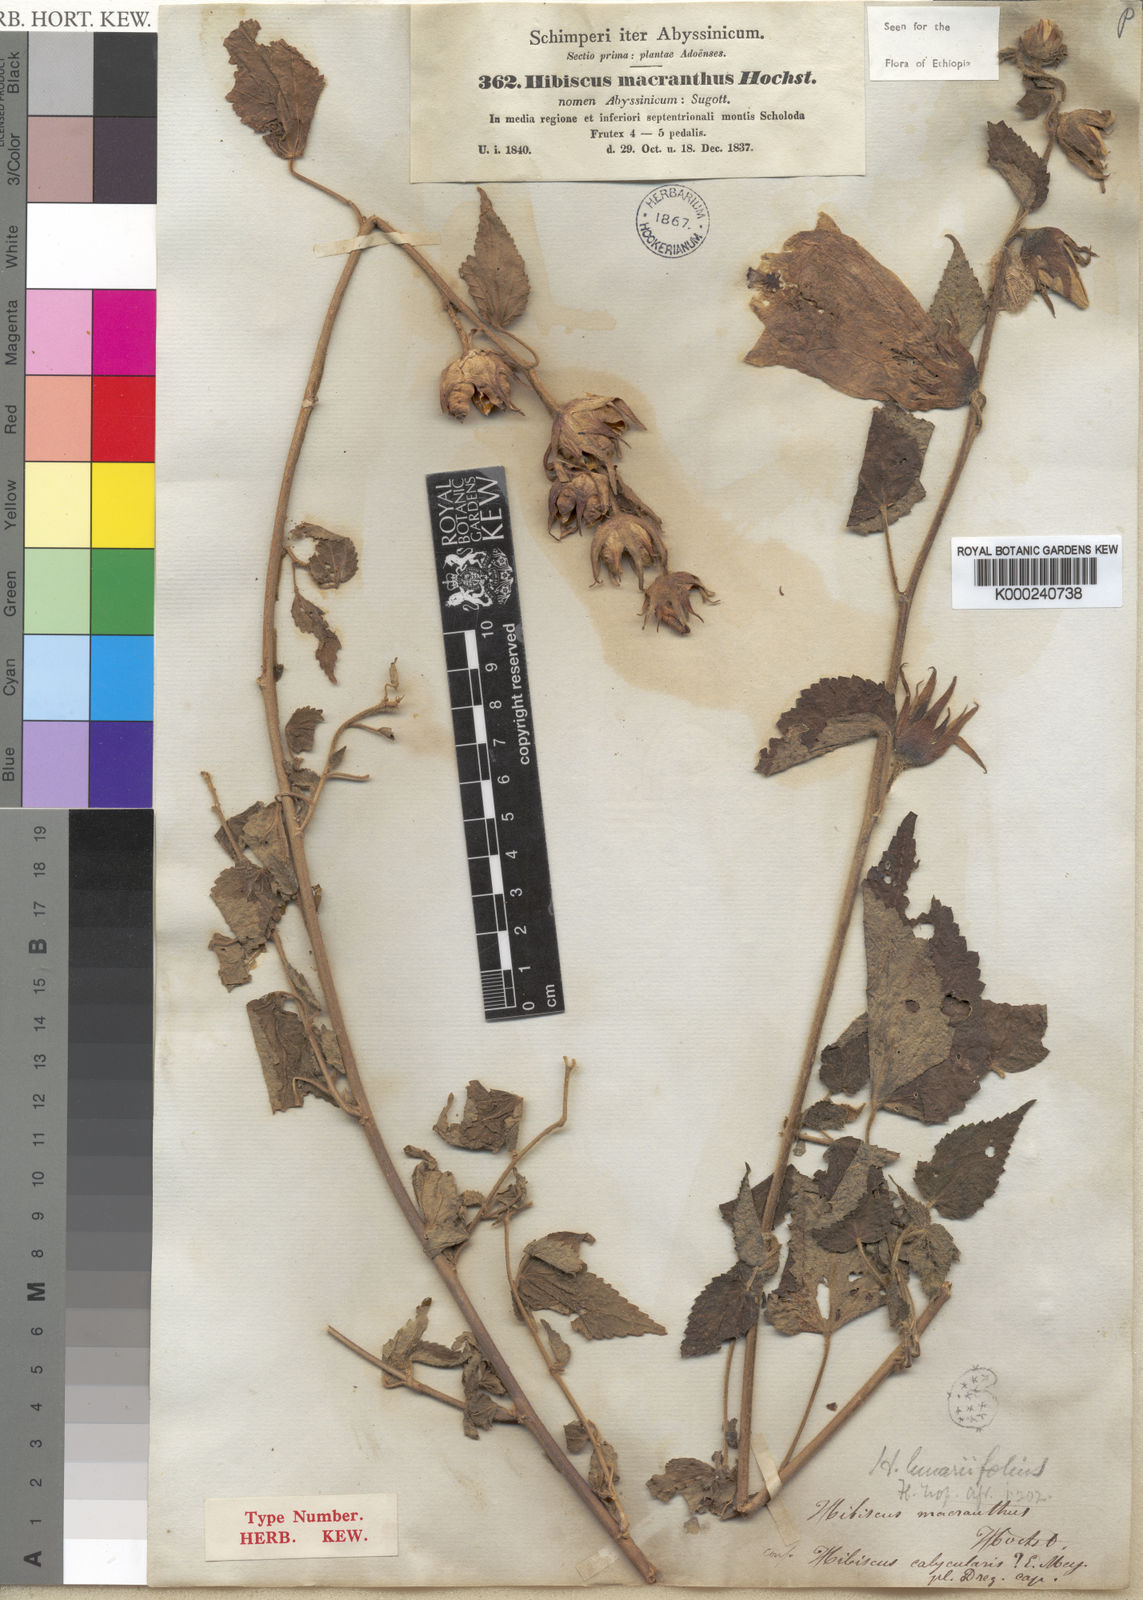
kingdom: Plantae
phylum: Tracheophyta
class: Magnoliopsida
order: Malvales
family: Malvaceae
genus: Hibiscus
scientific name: Hibiscus macranthus
